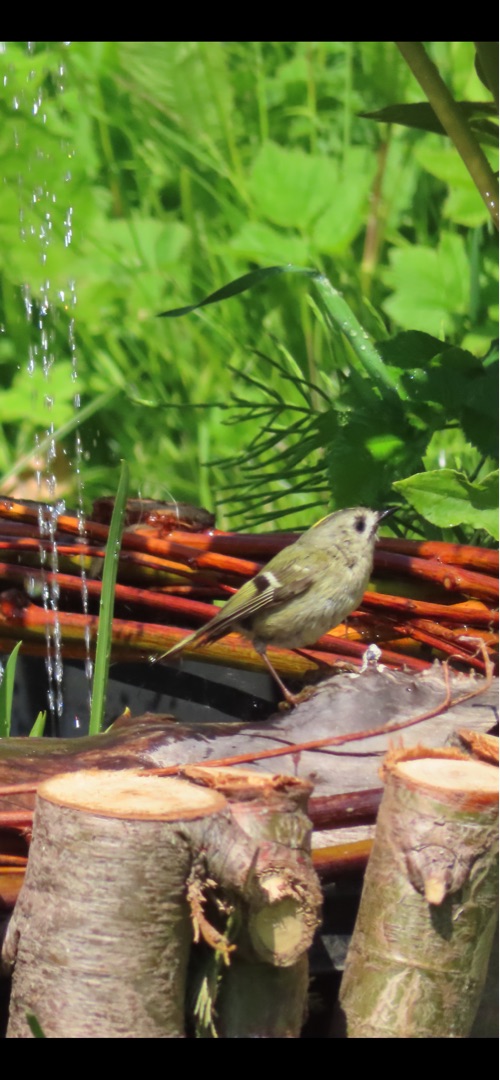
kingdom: Animalia
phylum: Chordata
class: Aves
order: Passeriformes
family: Regulidae
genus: Regulus
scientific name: Regulus regulus
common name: Fuglekonge
